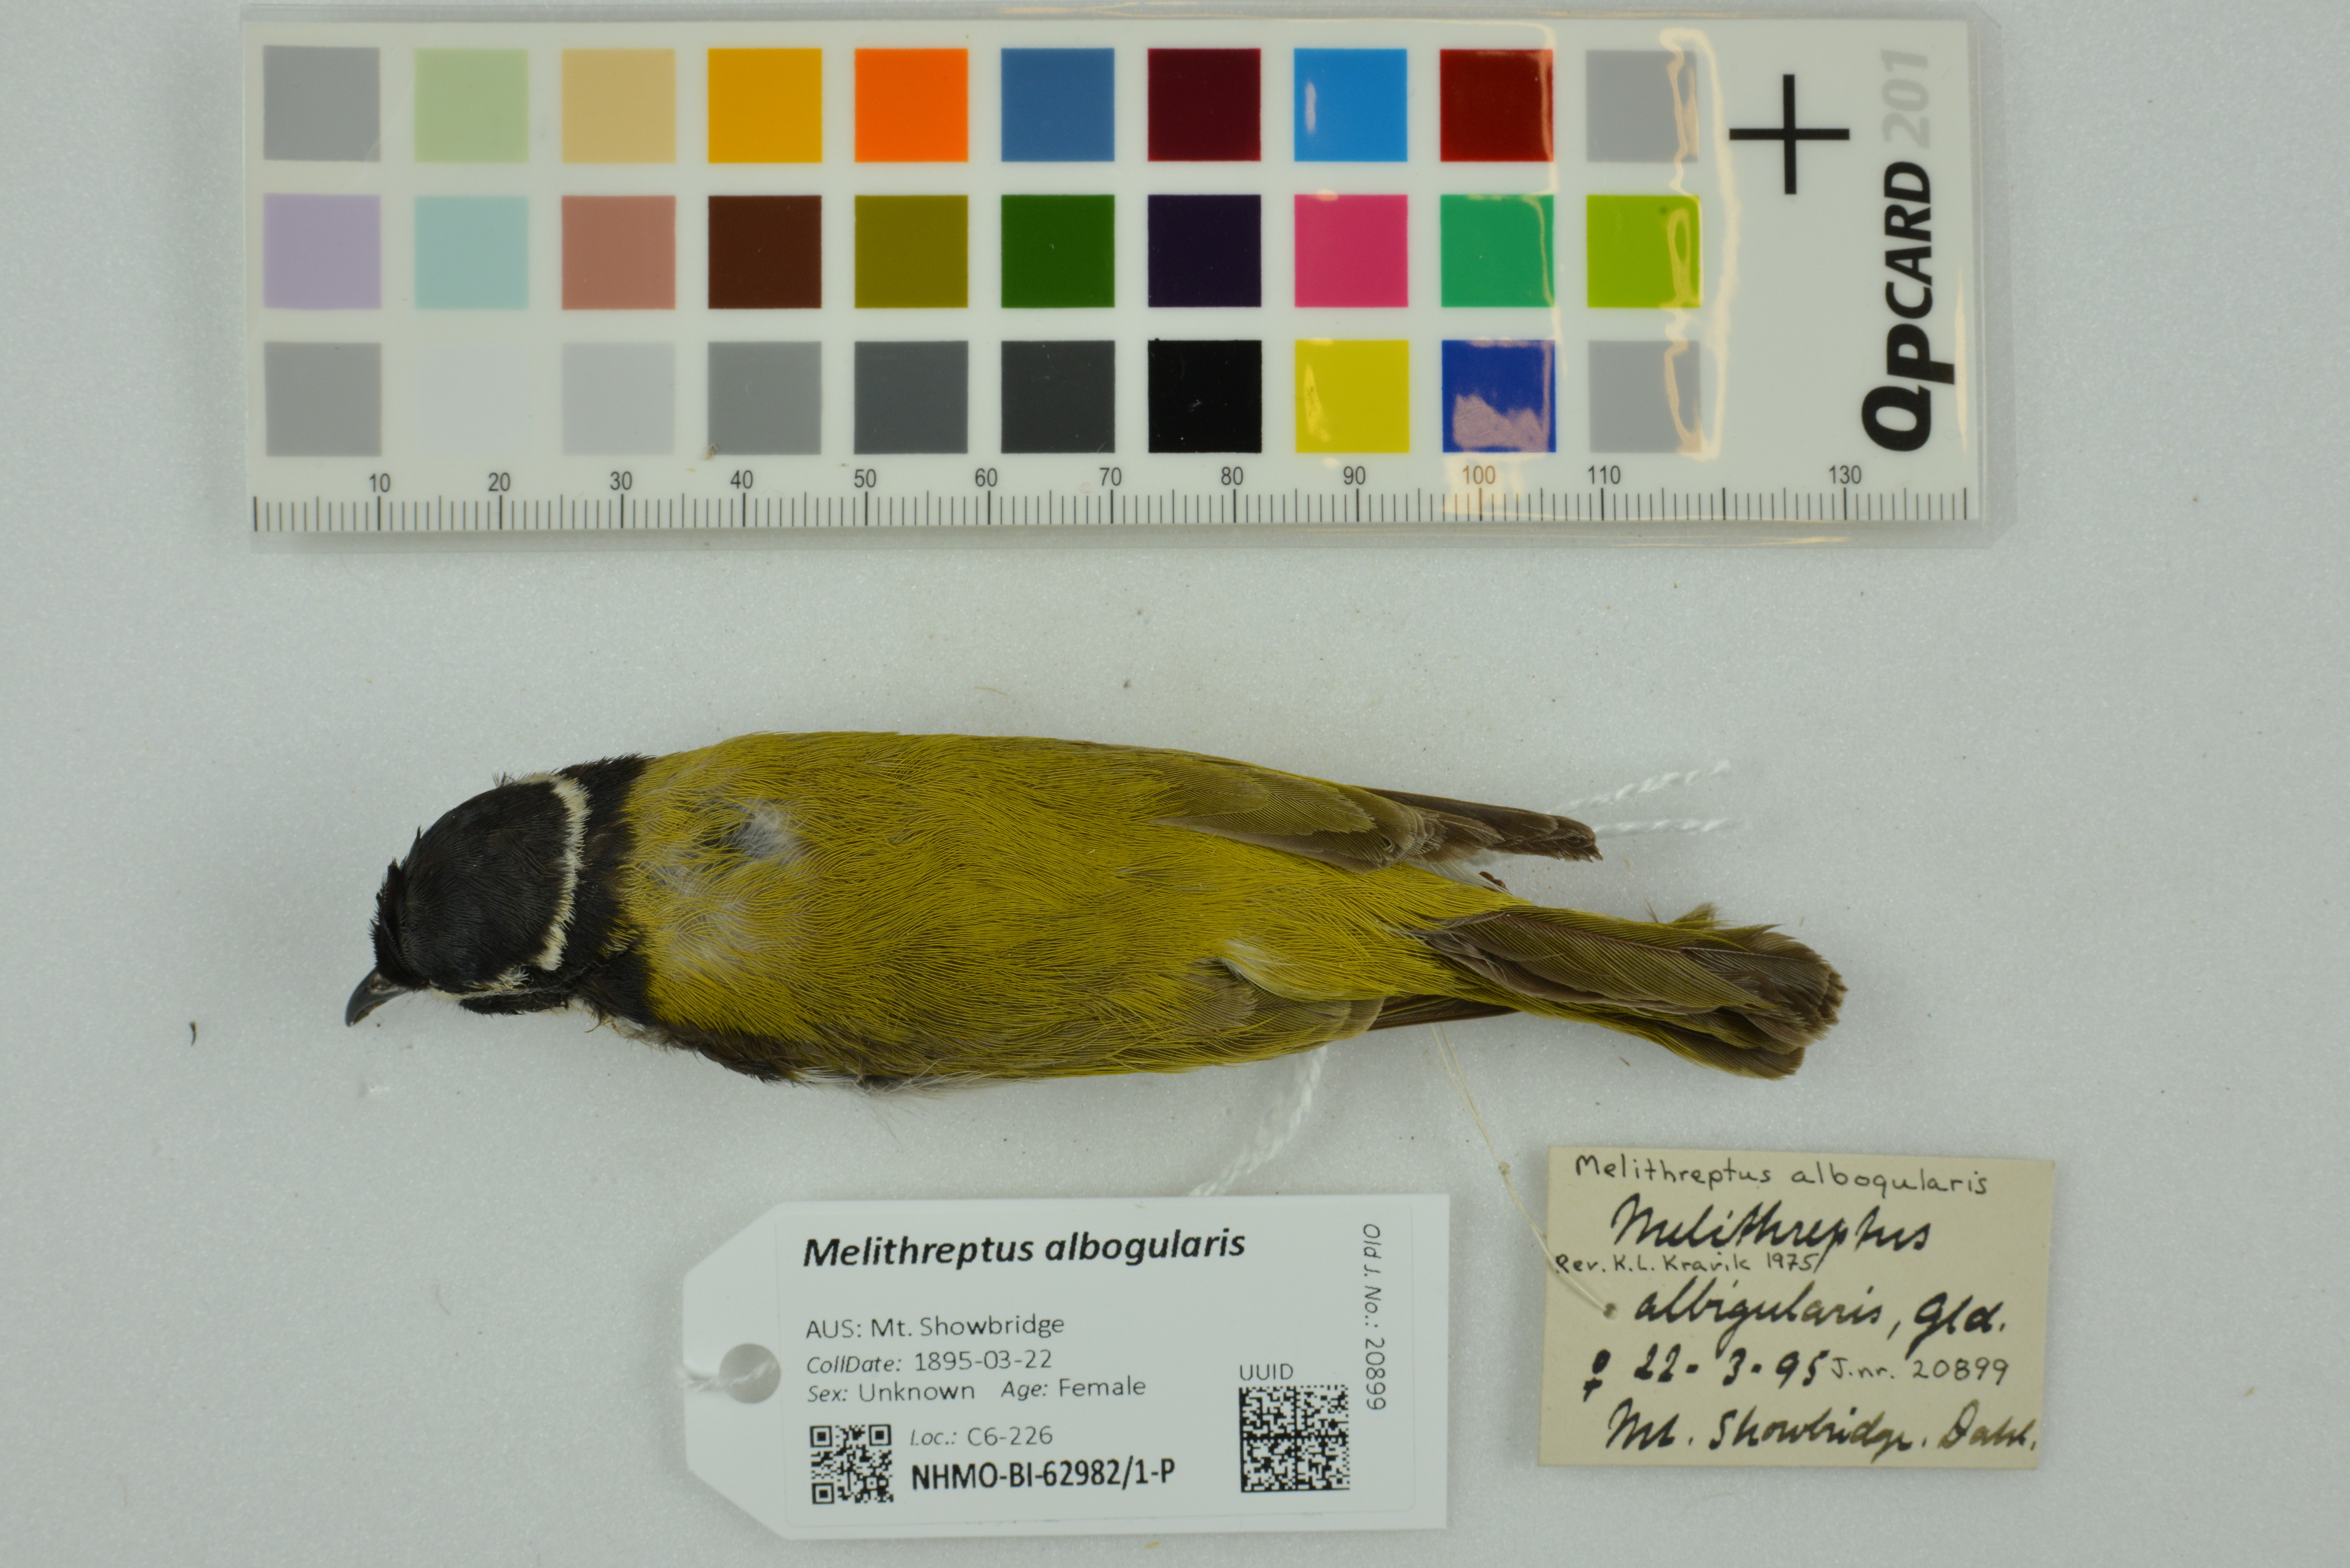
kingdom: Animalia
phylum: Chordata
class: Aves
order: Passeriformes
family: Meliphagidae
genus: Melithreptus
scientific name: Melithreptus albogularis
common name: White-throated honeyeater
